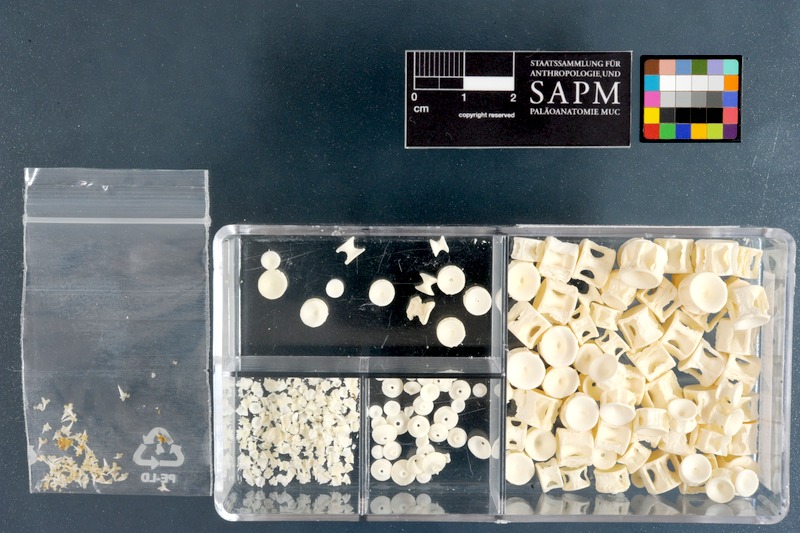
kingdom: Animalia
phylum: Chordata
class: Elasmobranchii
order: Carcharhiniformes
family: Scyliorhinidae
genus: Poroderma
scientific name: Poroderma africanum
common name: Pyjama shark
